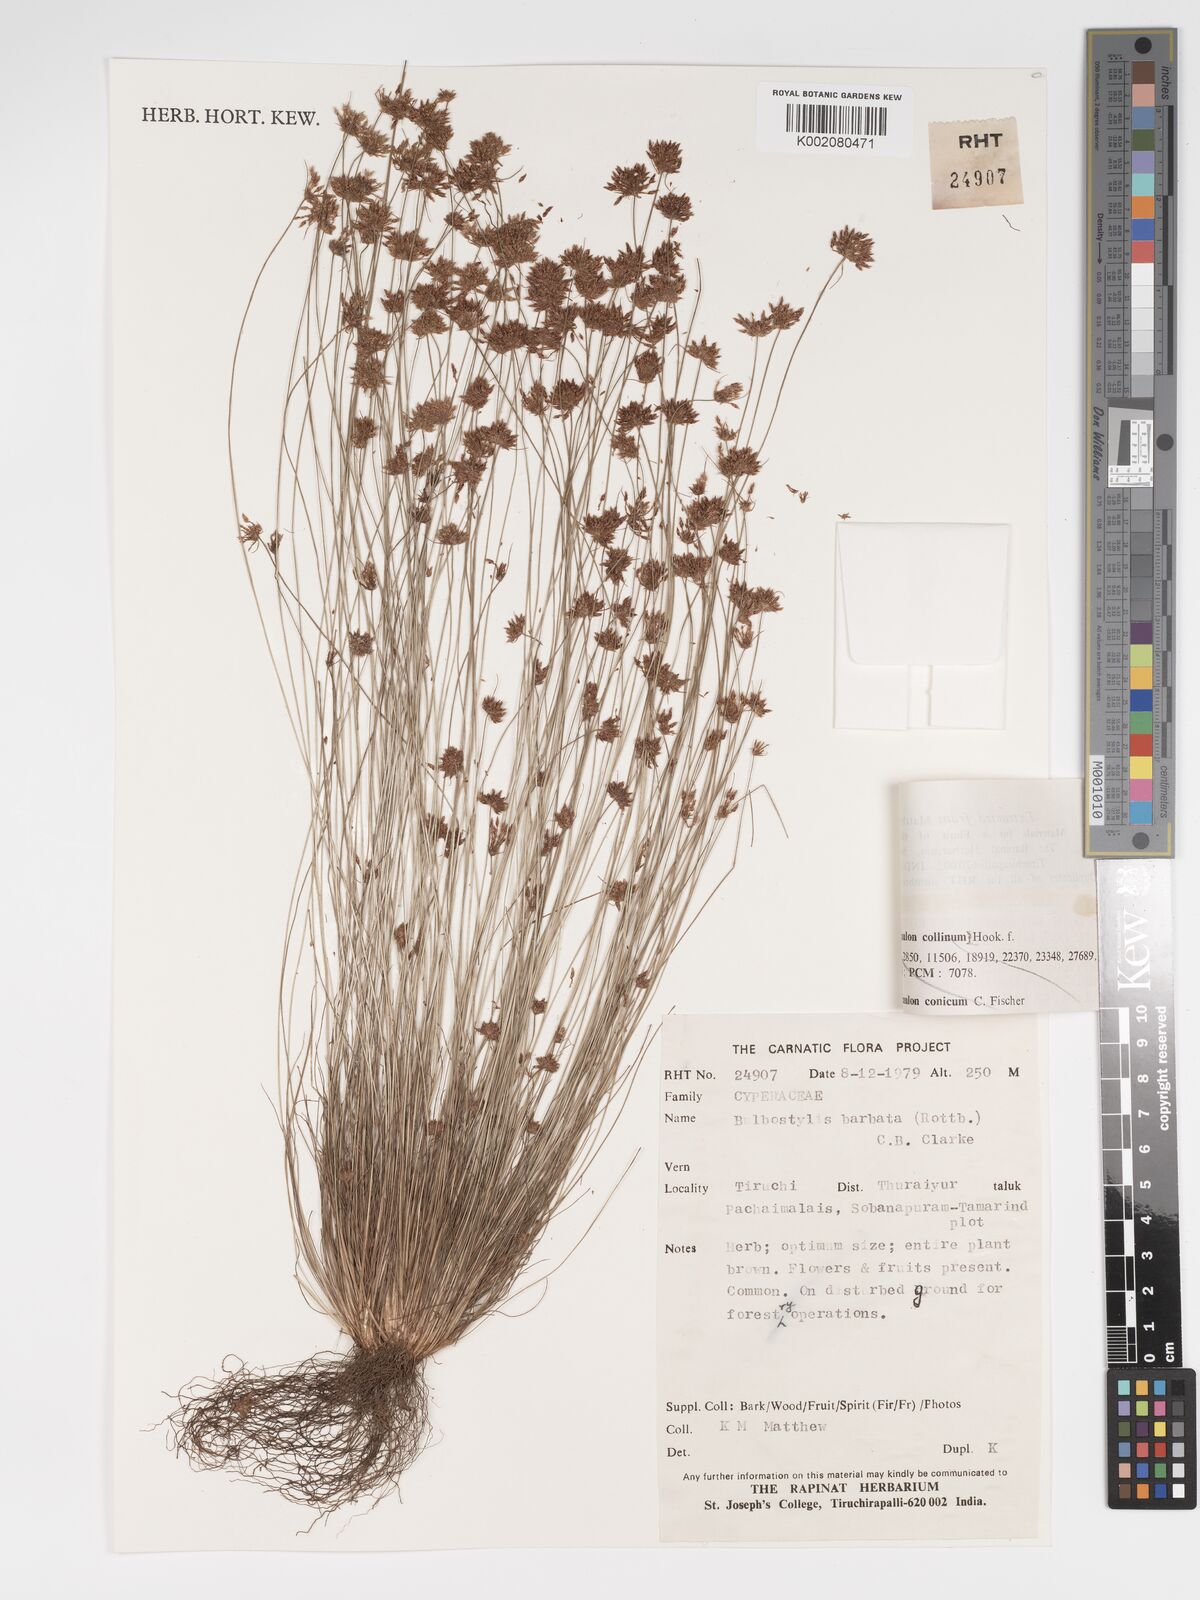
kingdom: Plantae
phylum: Tracheophyta
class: Liliopsida
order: Poales
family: Cyperaceae
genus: Bulbostylis
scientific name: Bulbostylis barbata
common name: Watergrass
